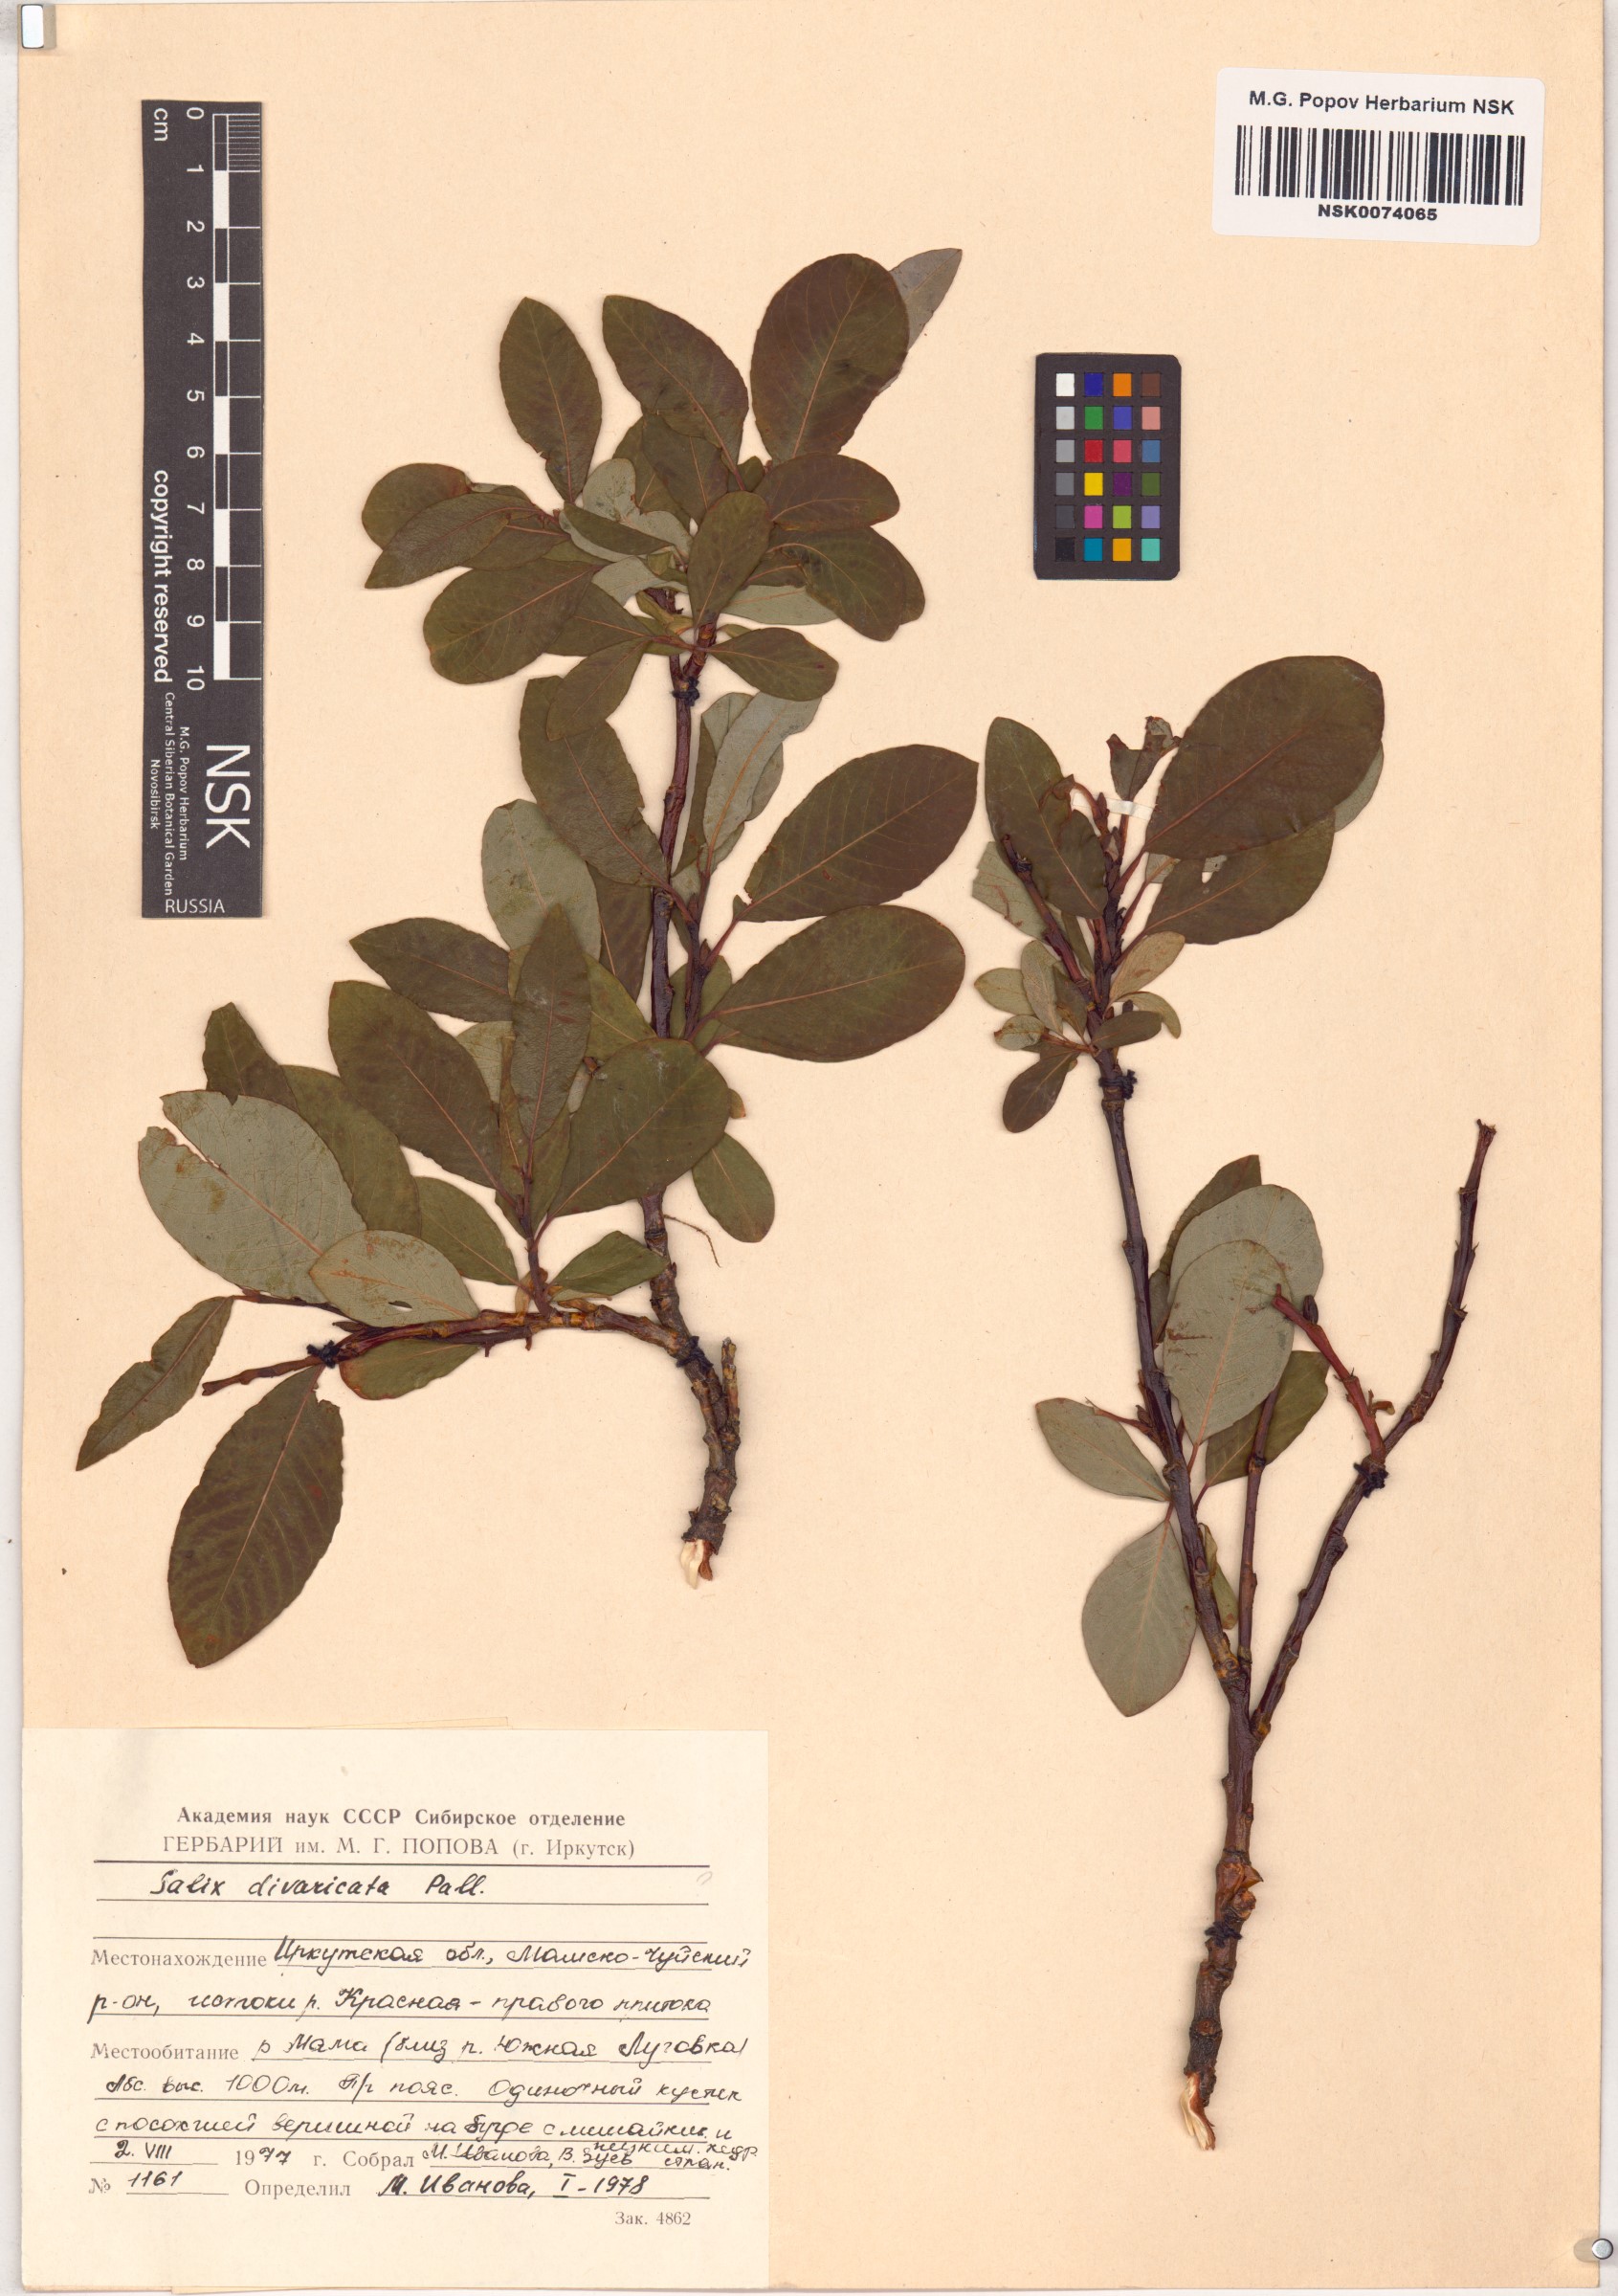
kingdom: Plantae
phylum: Tracheophyta
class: Magnoliopsida
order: Malpighiales
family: Salicaceae
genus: Salix
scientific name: Salix divaricata
